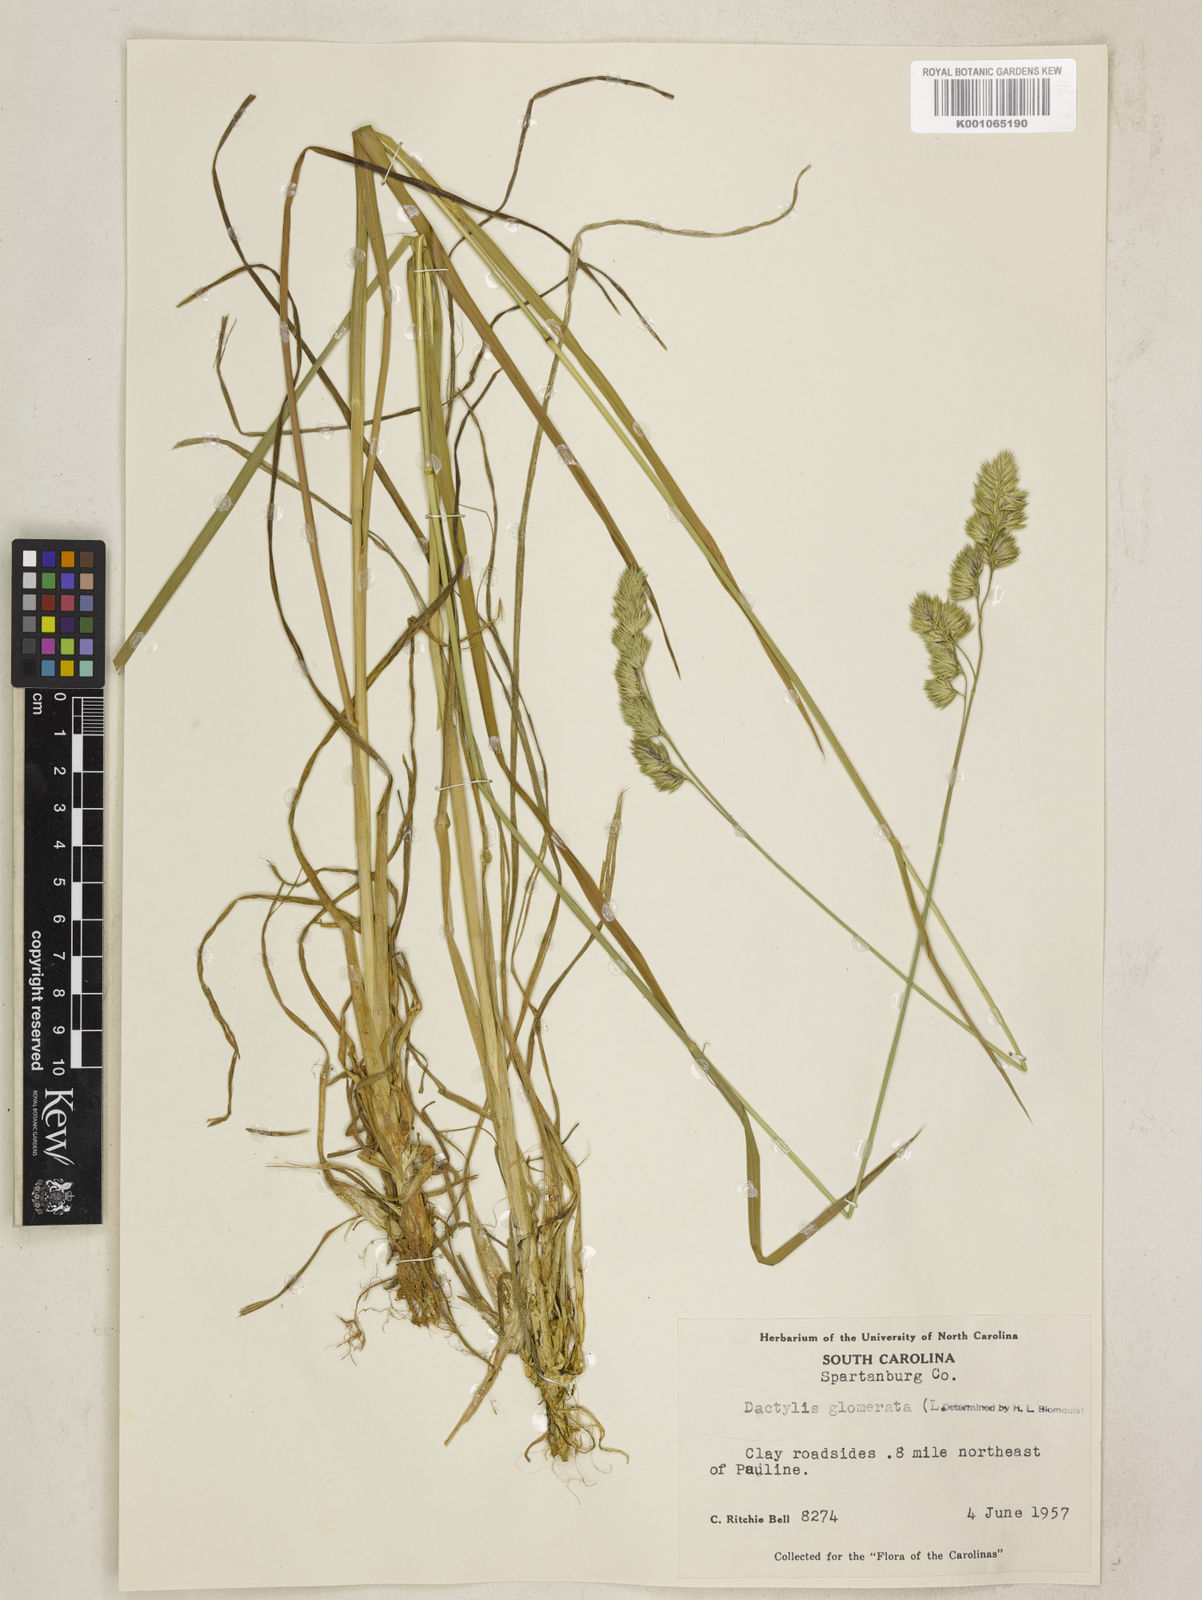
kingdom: Plantae
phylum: Tracheophyta
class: Liliopsida
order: Poales
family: Poaceae
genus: Dactylis
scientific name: Dactylis glomerata
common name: Orchardgrass
